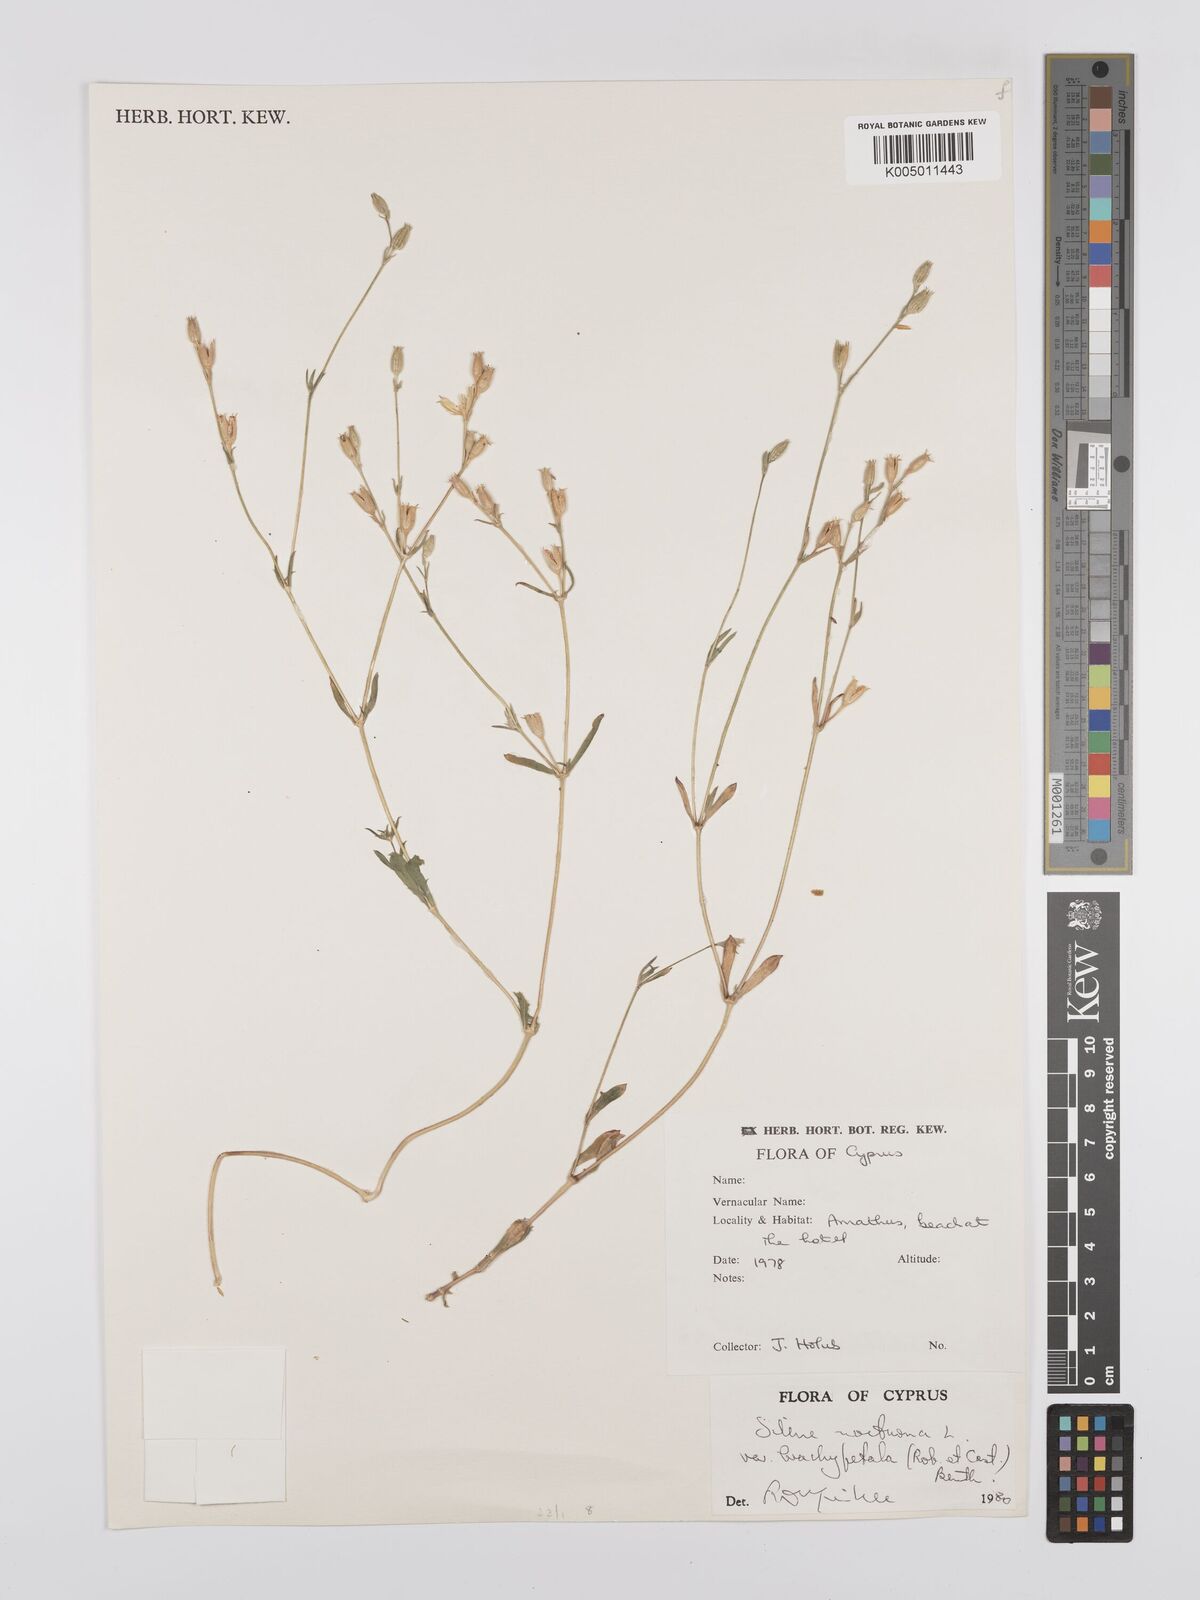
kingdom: Plantae
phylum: Tracheophyta
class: Magnoliopsida
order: Caryophyllales
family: Caryophyllaceae
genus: Silene
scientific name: Silene nocturna
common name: Mediterranean catchfly
